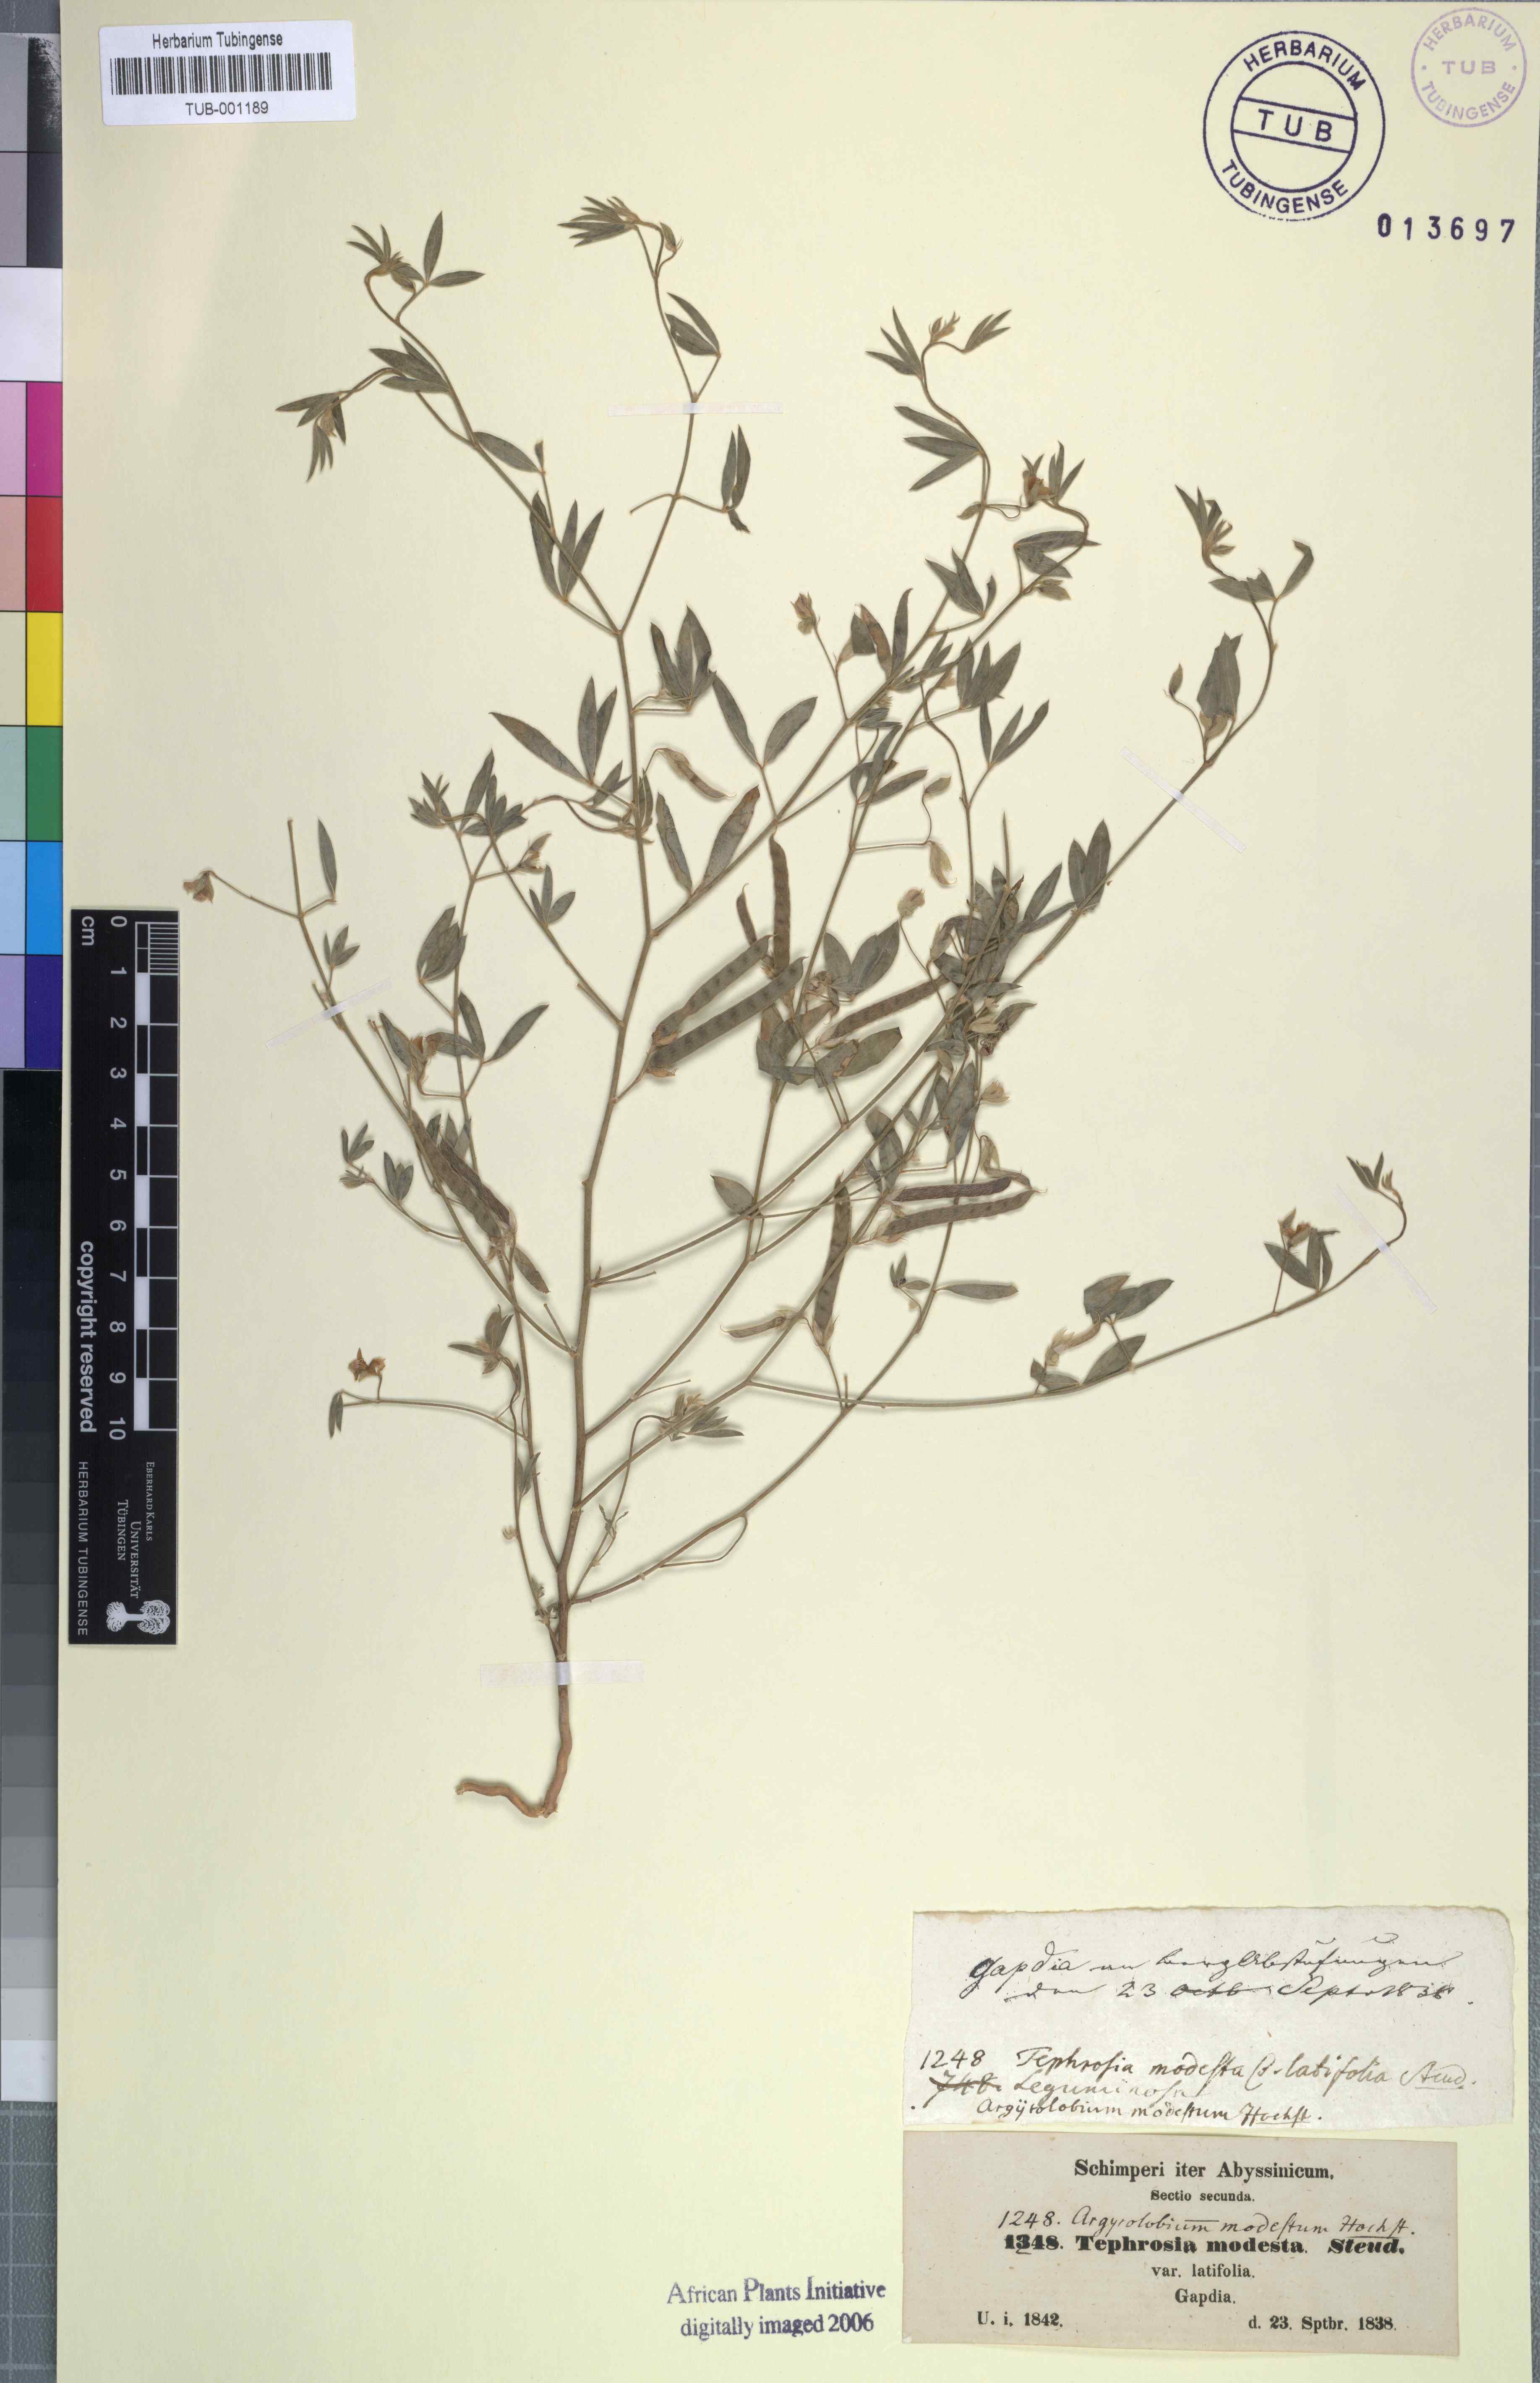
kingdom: Plantae
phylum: Tracheophyta
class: Magnoliopsida
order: Fabales
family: Fabaceae
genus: Argyrolobium
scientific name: Argyrolobium arabicum
